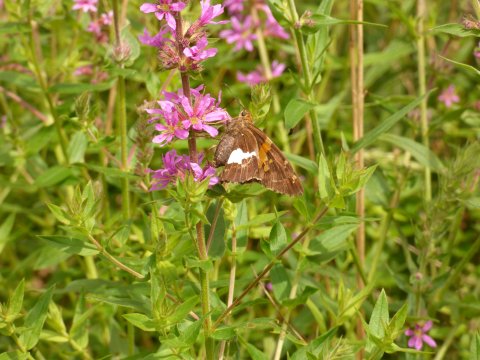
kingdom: Animalia
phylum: Arthropoda
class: Insecta
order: Lepidoptera
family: Hesperiidae
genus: Epargyreus
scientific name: Epargyreus clarus
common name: Silver-spotted Skipper
